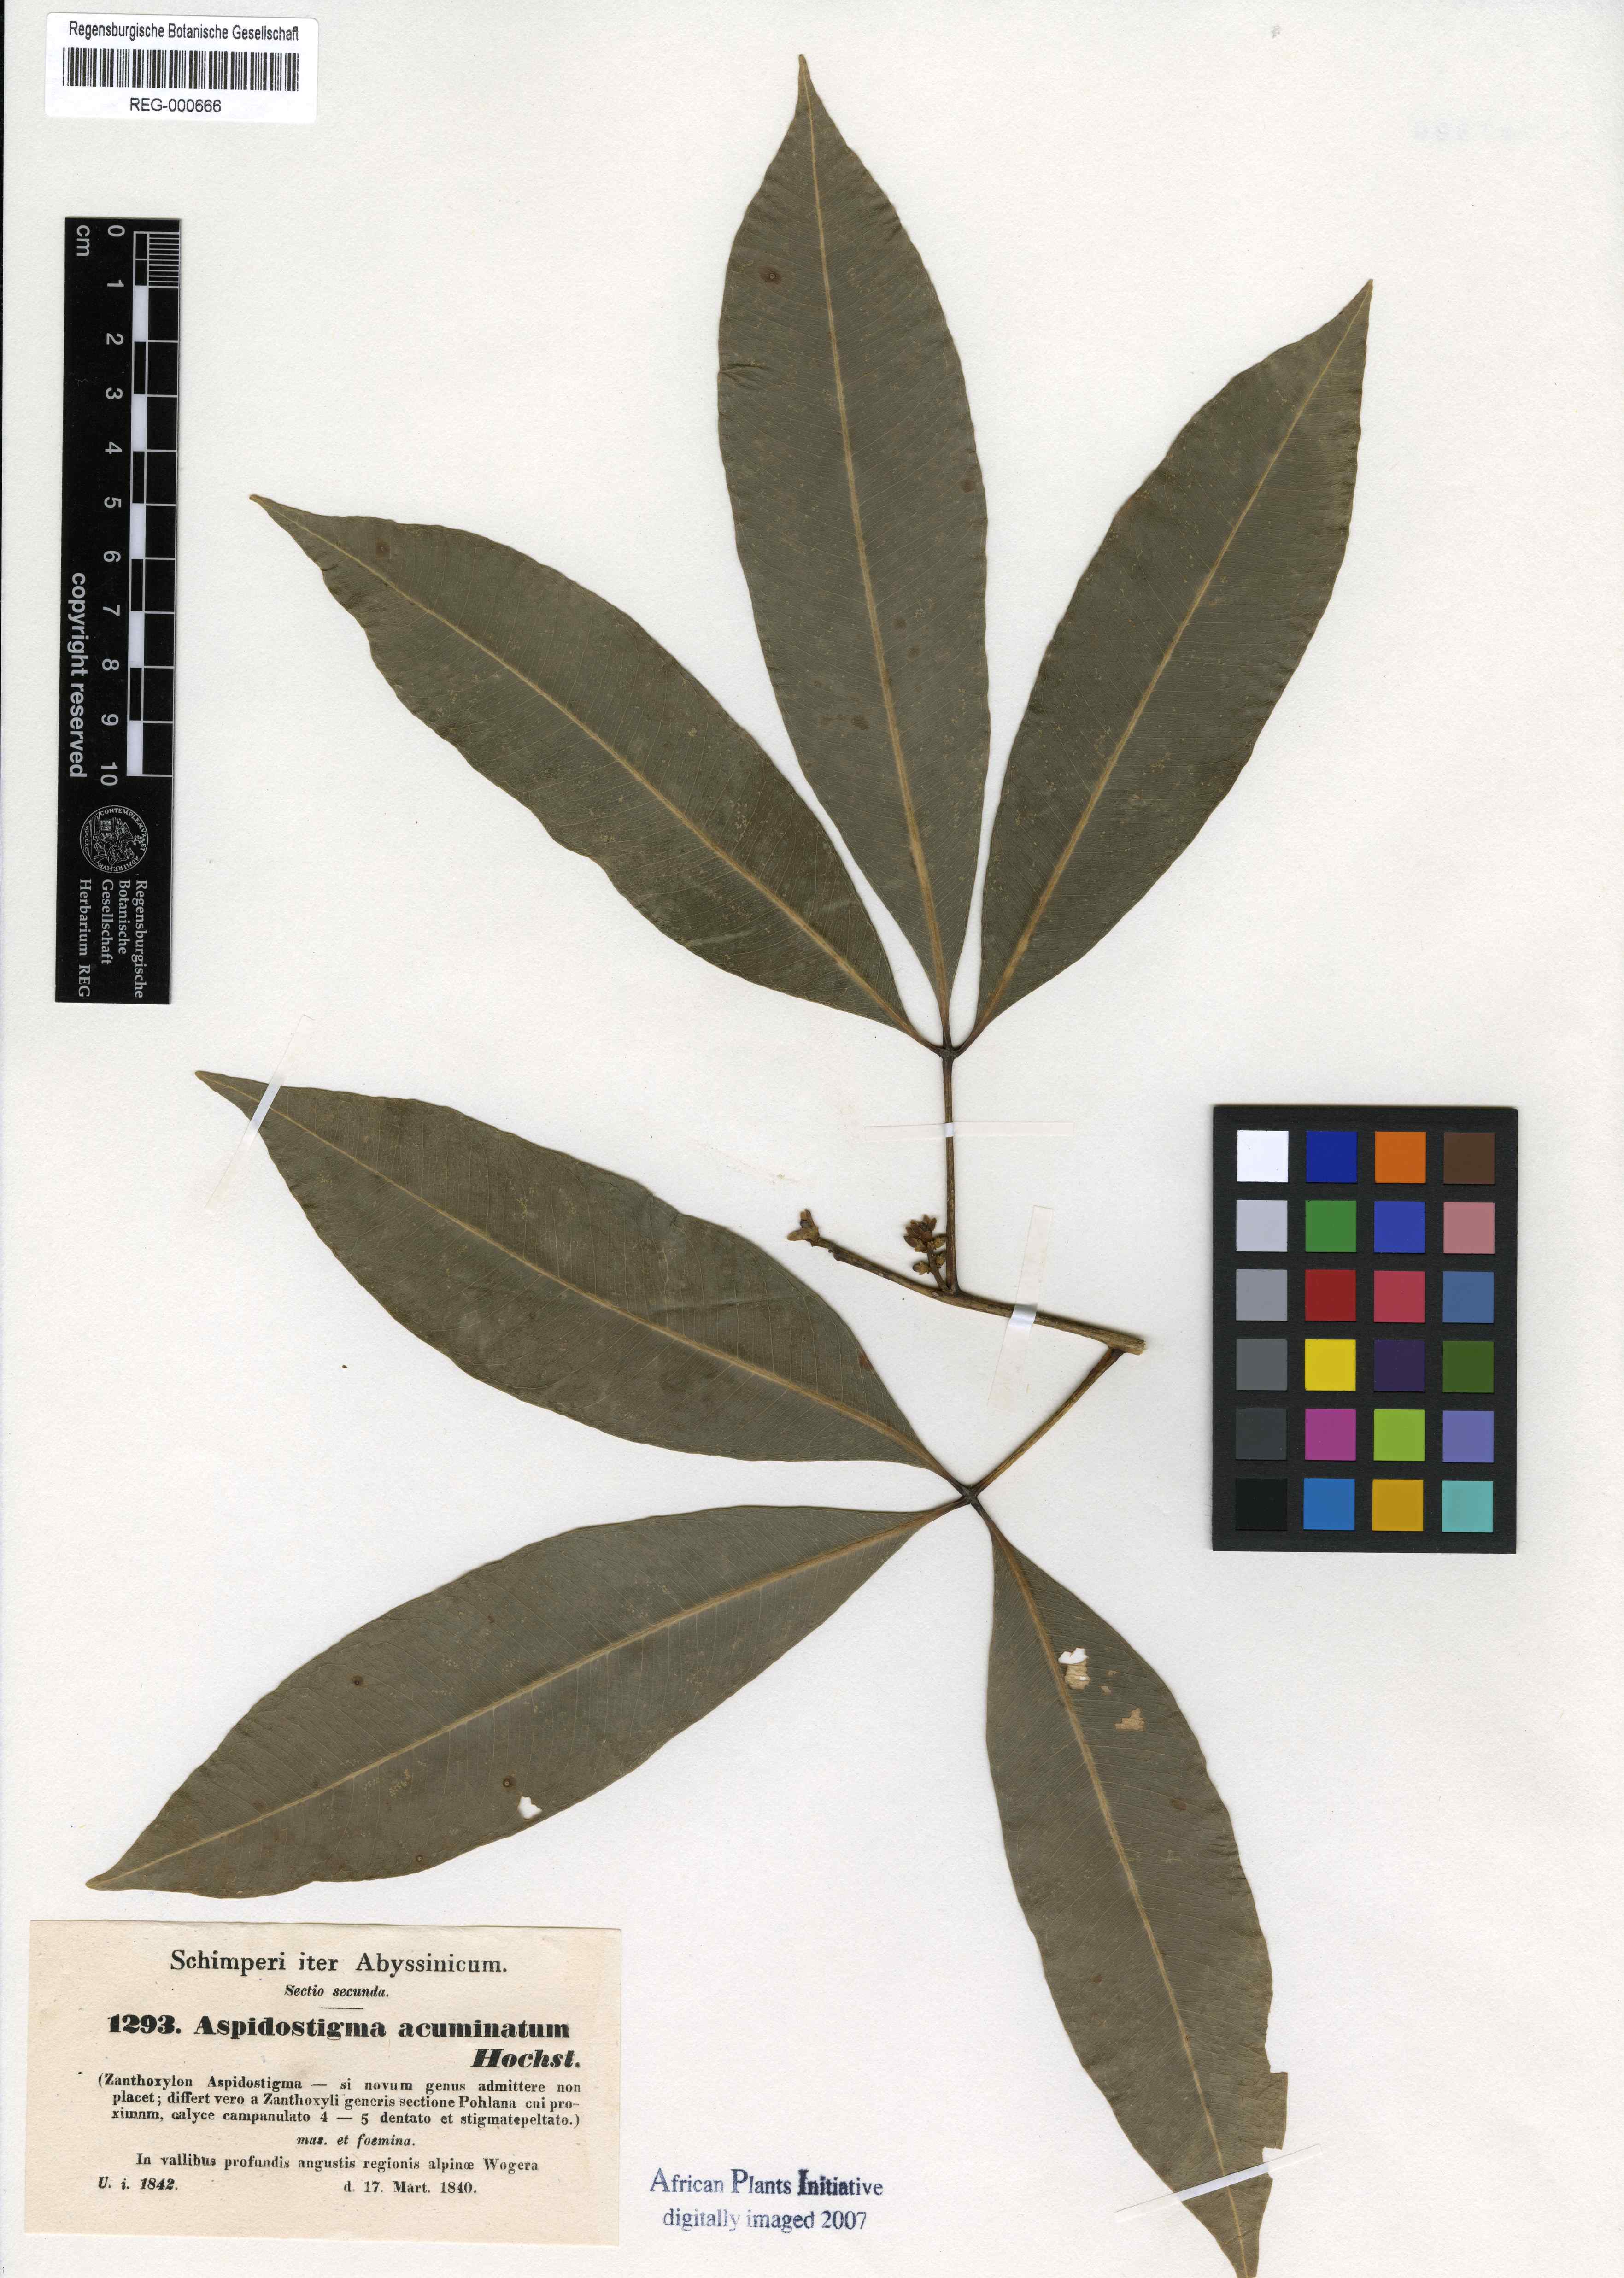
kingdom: Plantae
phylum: Tracheophyta
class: Magnoliopsida
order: Sapindales
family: Rutaceae
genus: Vepris
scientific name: Vepris nobilis
